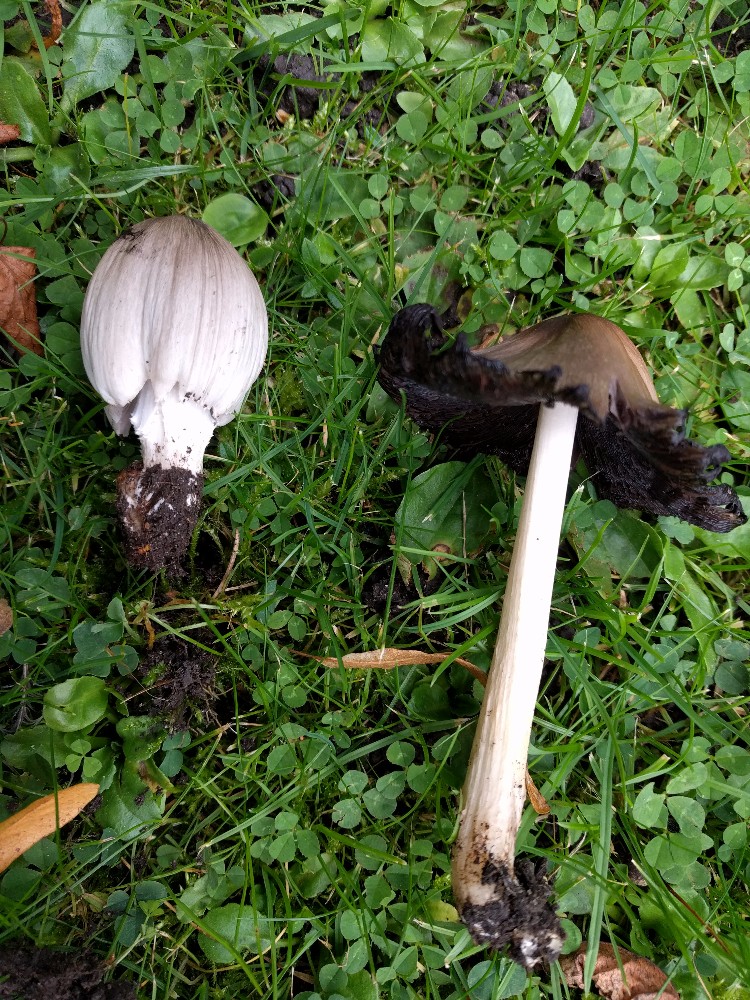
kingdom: Fungi
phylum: Basidiomycota
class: Agaricomycetes
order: Agaricales
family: Psathyrellaceae
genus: Coprinopsis
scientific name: Coprinopsis atramentaria
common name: almindelig blækhat
